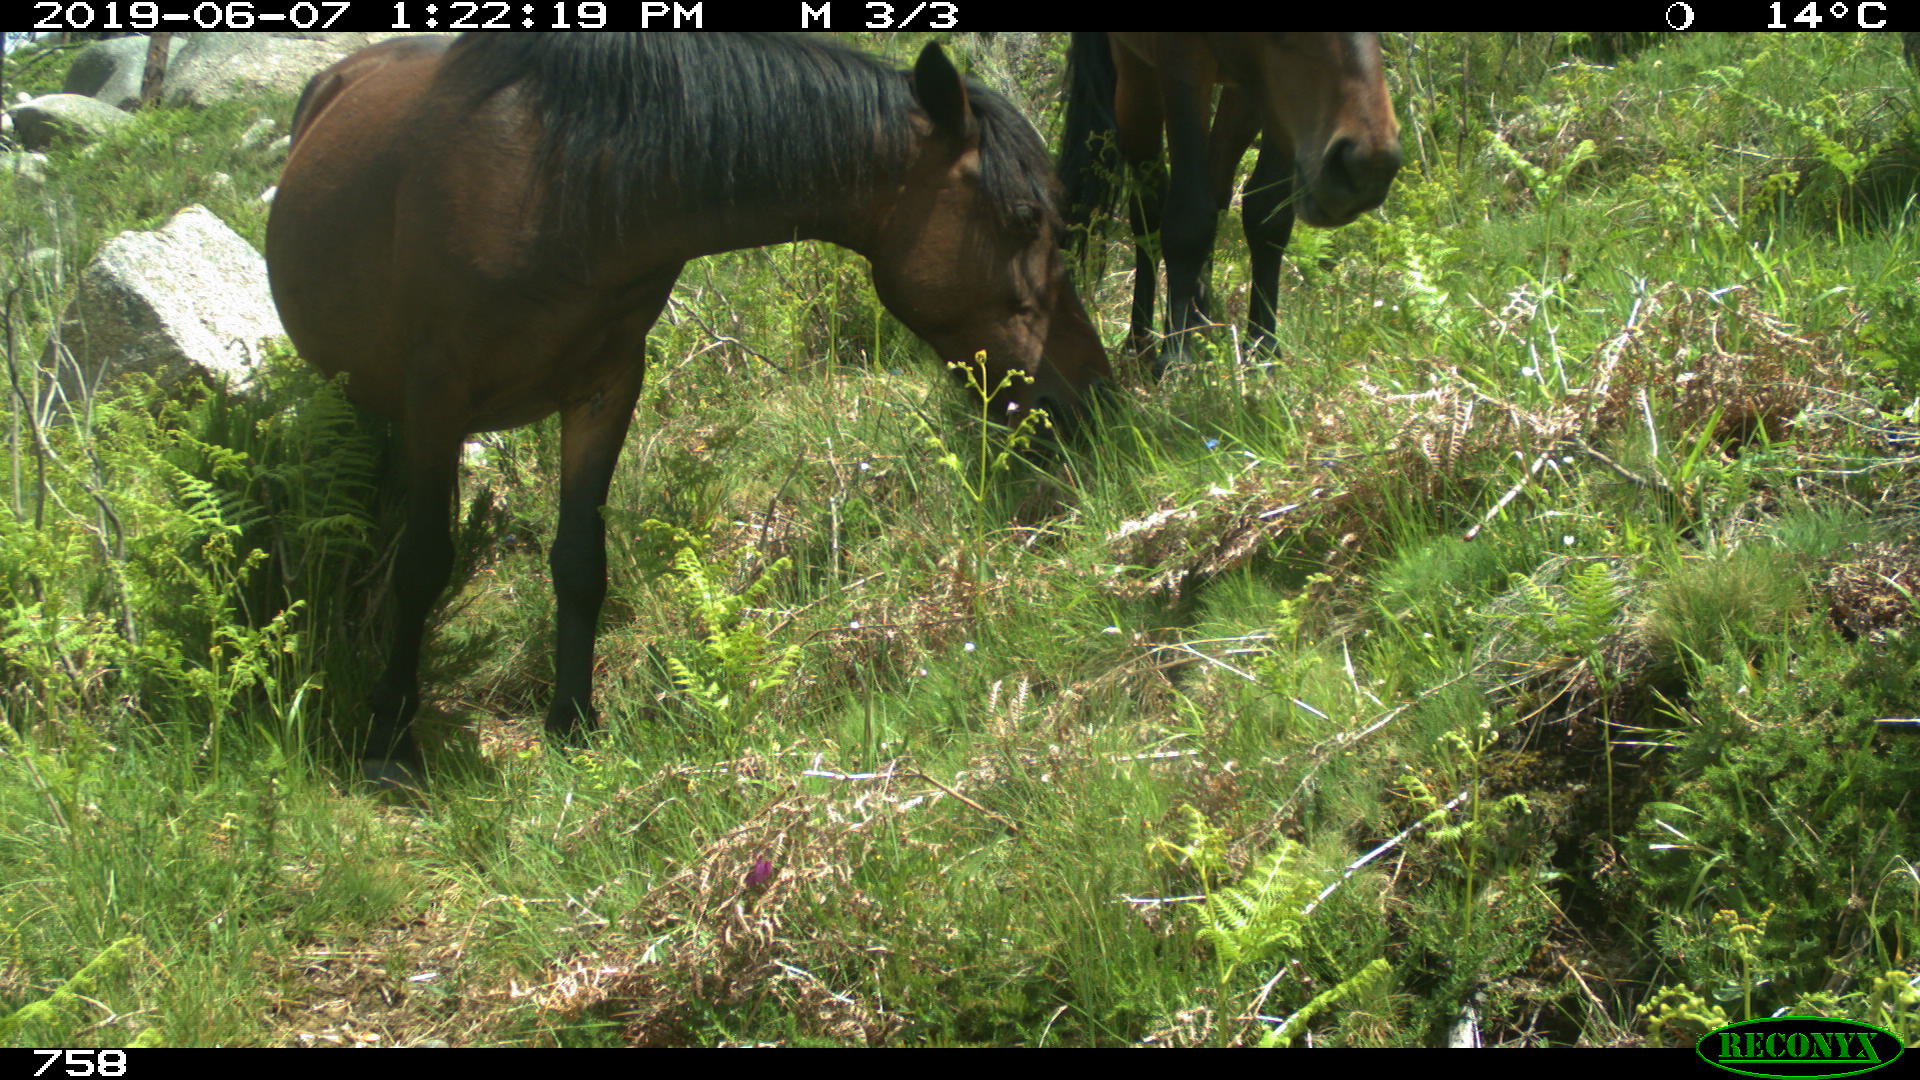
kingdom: Animalia
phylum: Chordata
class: Mammalia
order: Perissodactyla
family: Equidae
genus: Equus
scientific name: Equus caballus
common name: Horse
